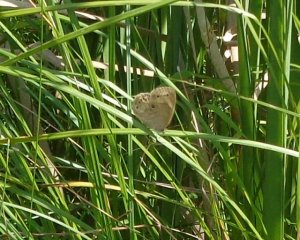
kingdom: Animalia
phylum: Arthropoda
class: Insecta
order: Lepidoptera
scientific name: Lepidoptera
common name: Butterflies
